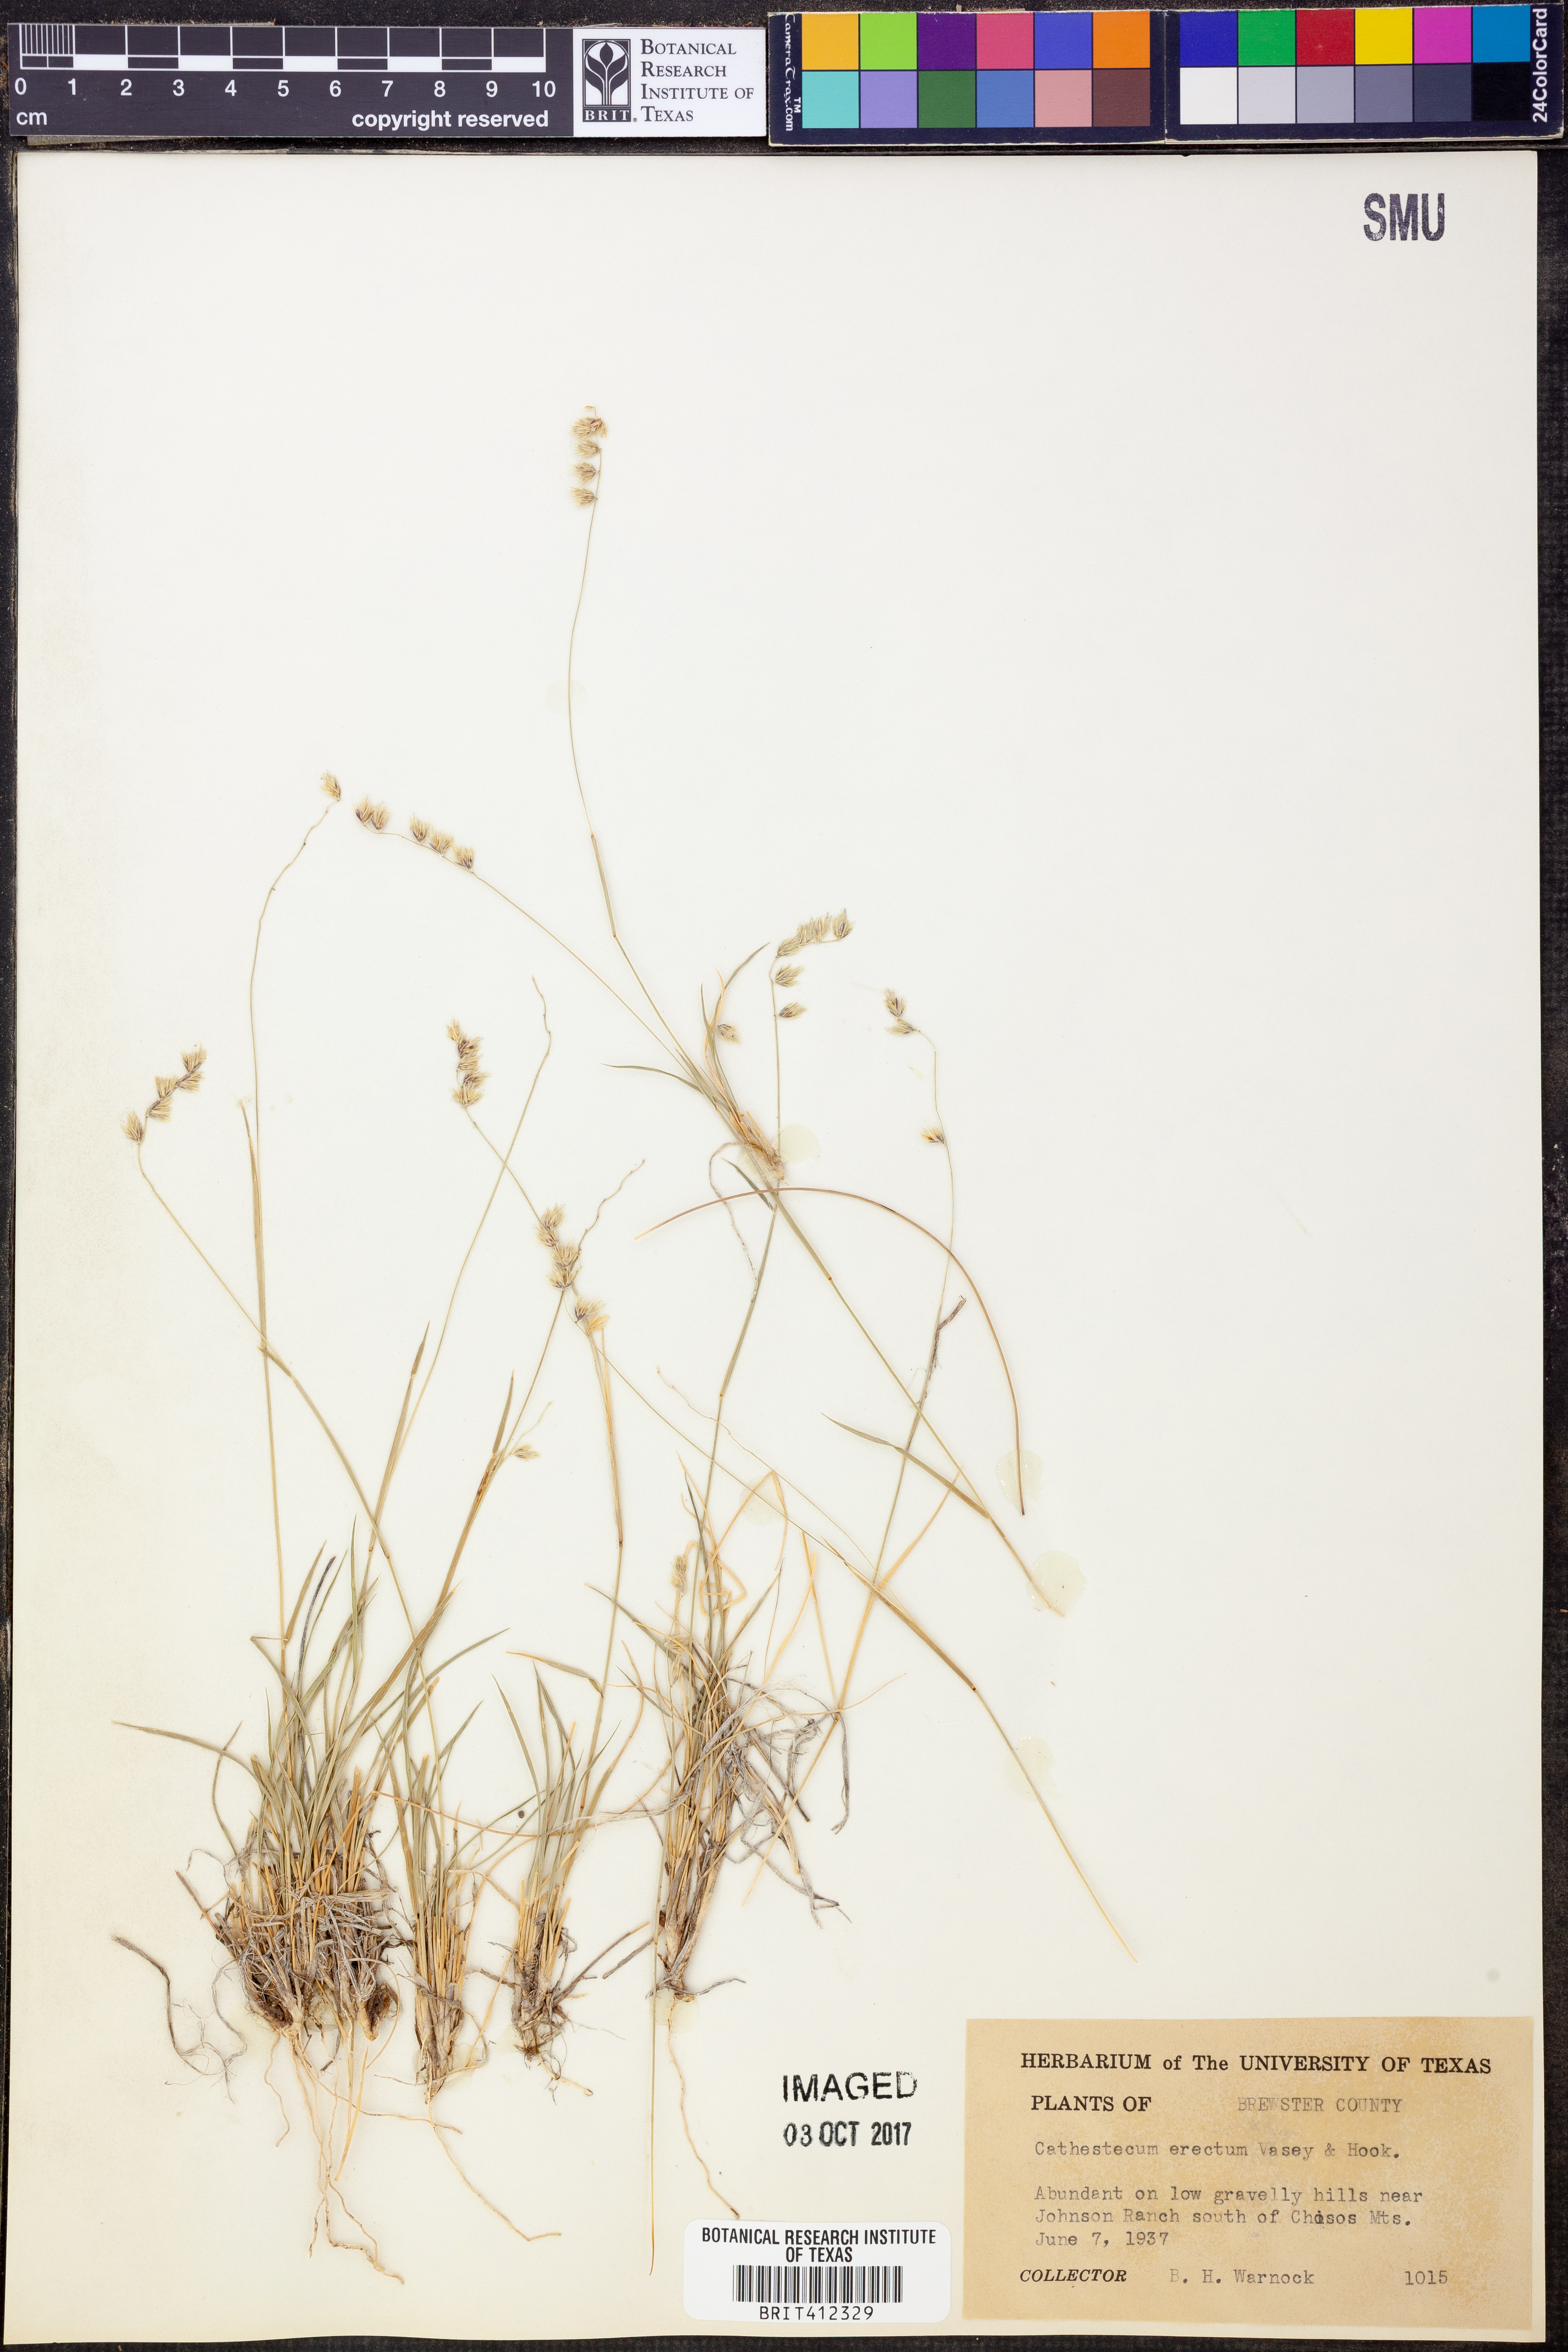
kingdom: Plantae
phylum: Tracheophyta
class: Liliopsida
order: Poales
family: Poaceae
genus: Bouteloua
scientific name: Bouteloua erecta
